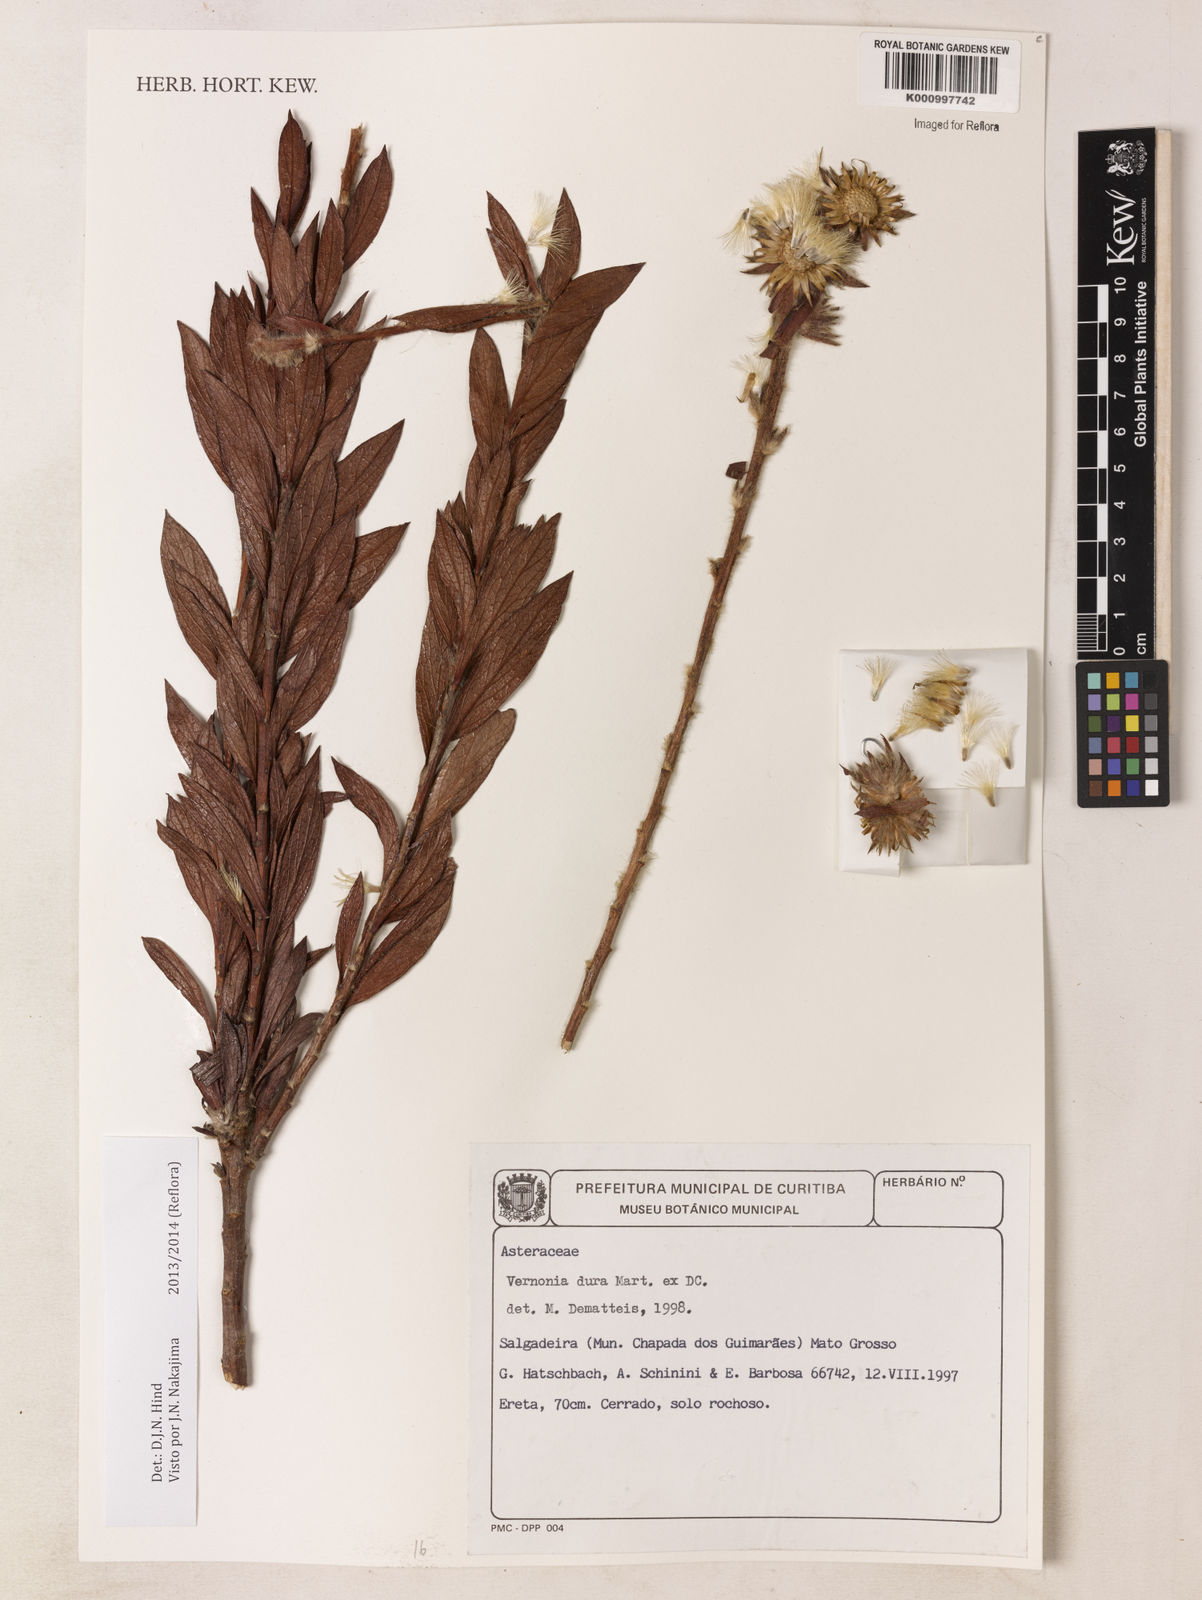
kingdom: Plantae
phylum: Tracheophyta
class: Magnoliopsida
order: Asterales
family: Asteraceae
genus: Lessingianthus
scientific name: Lessingianthus durus
